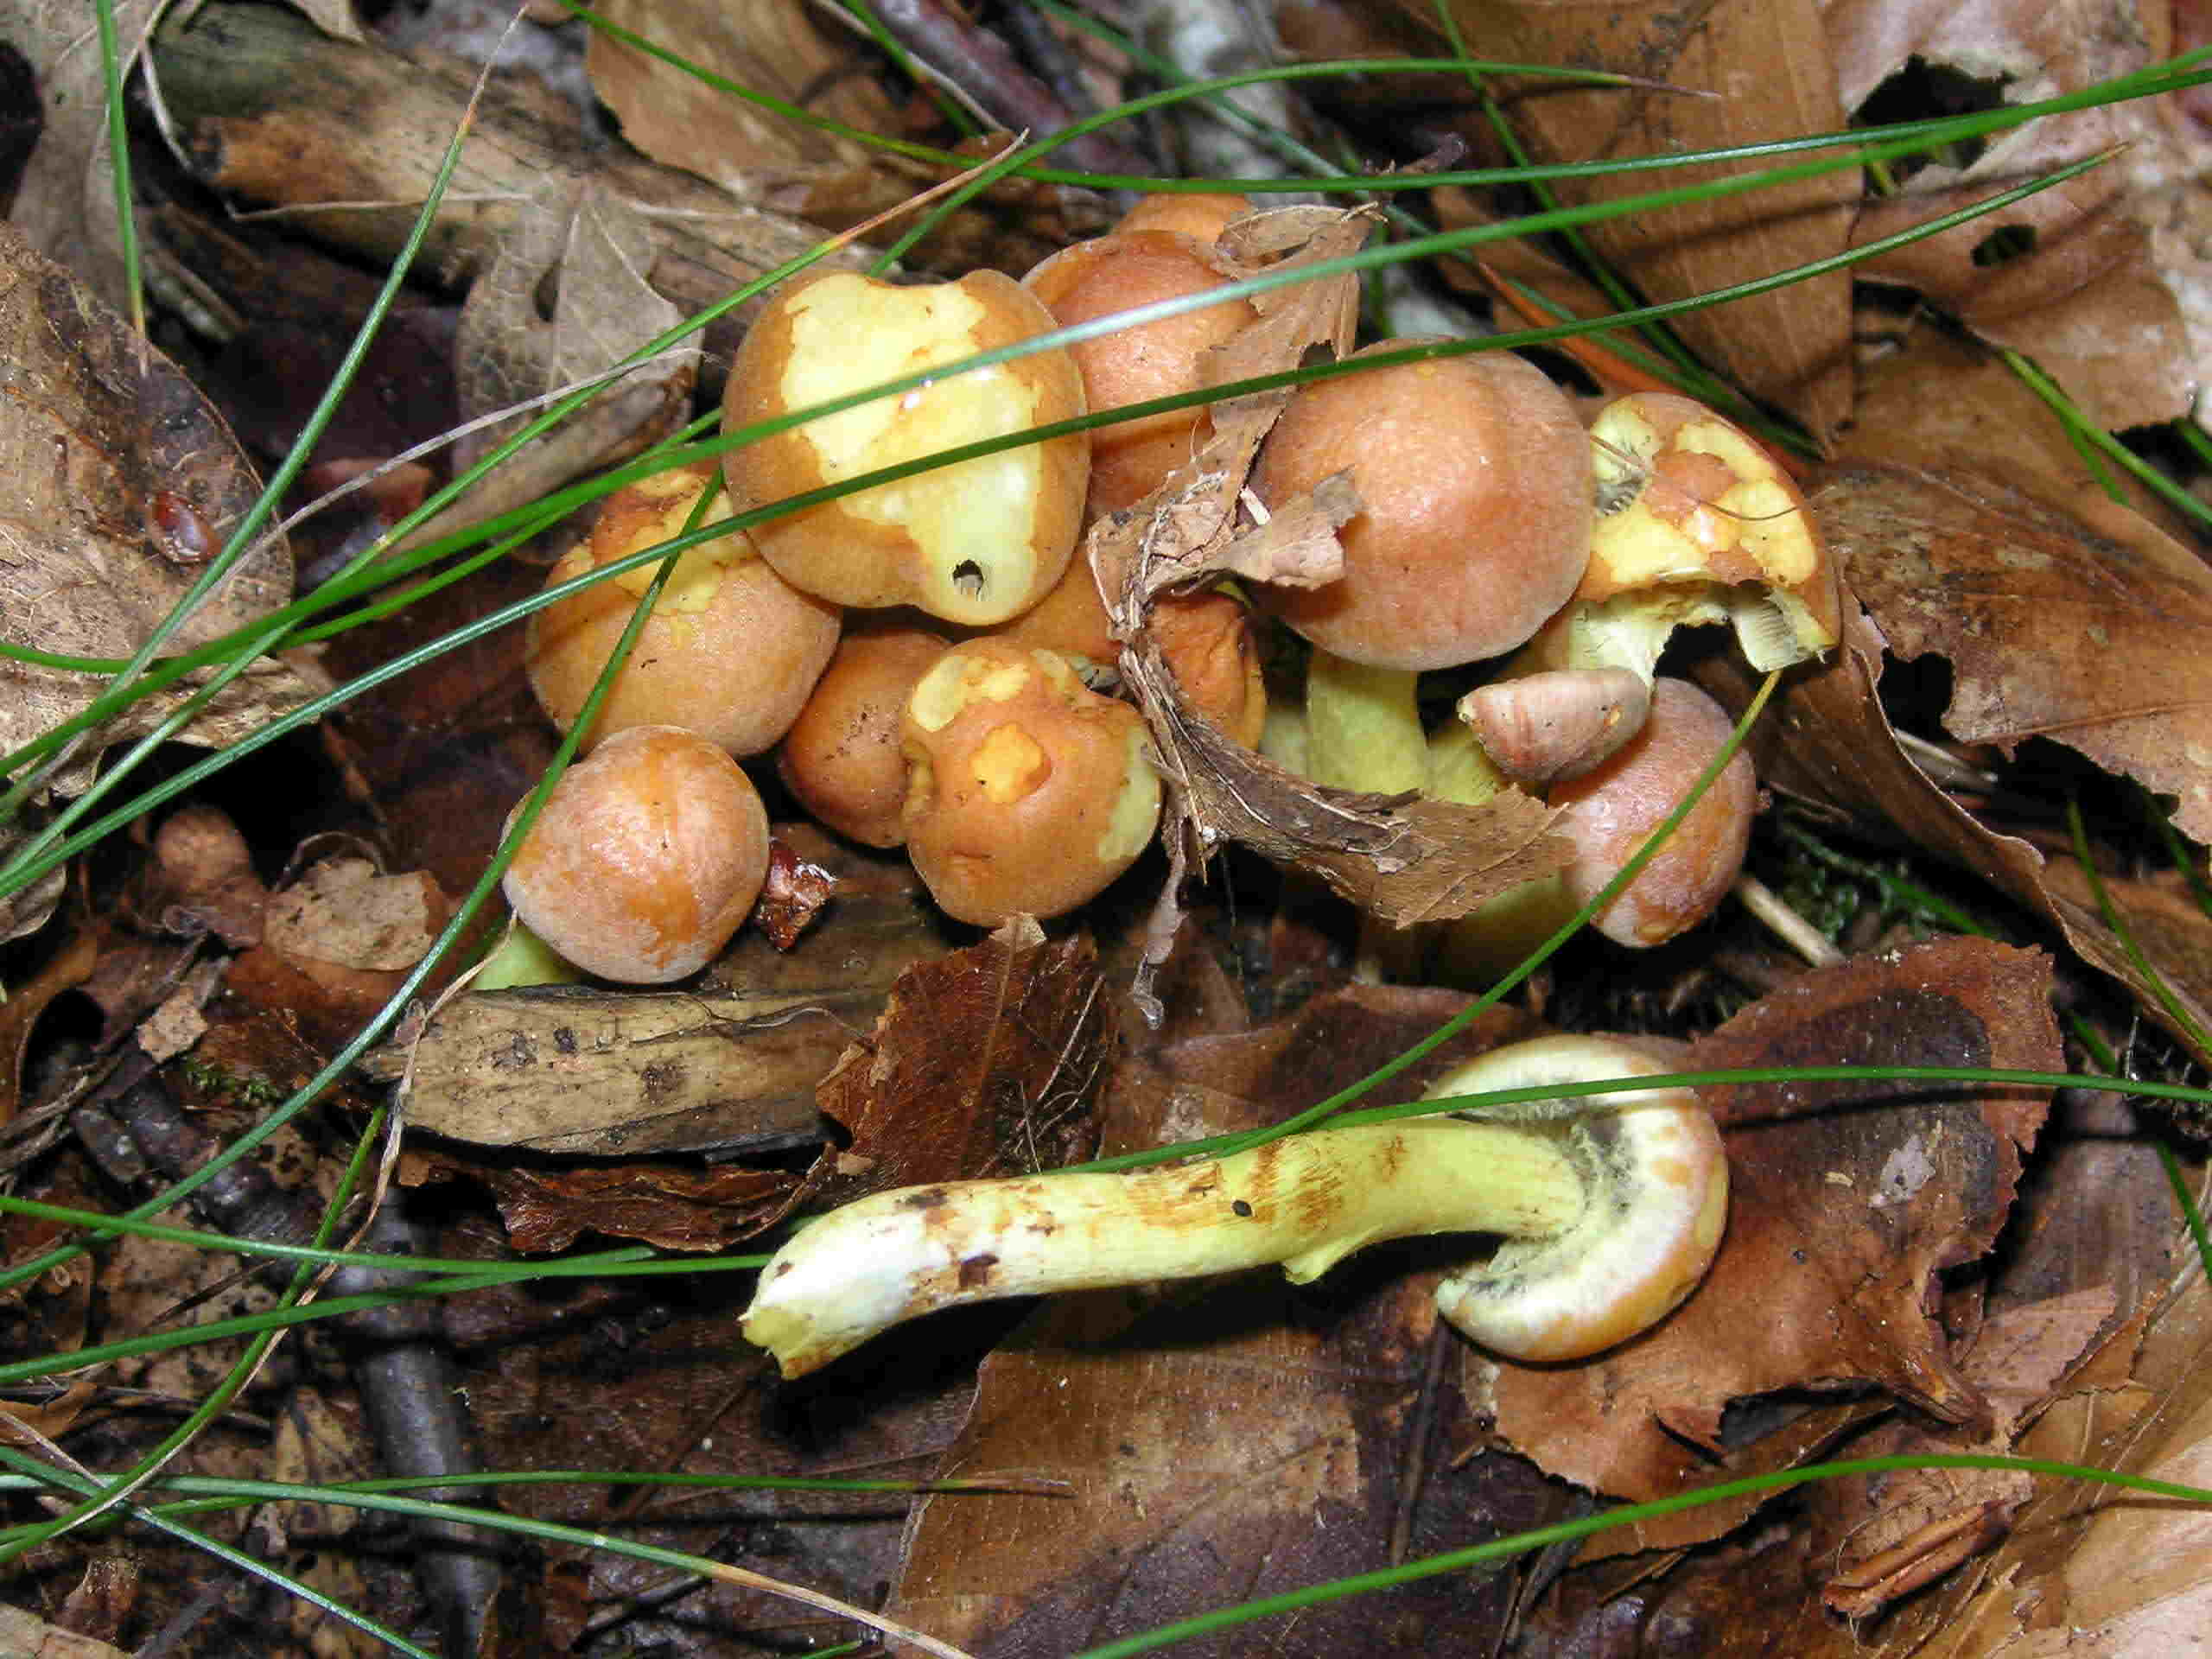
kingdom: Fungi
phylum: Basidiomycota
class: Agaricomycetes
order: Agaricales
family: Strophariaceae
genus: Hypholoma
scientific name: Hypholoma fasciculare
